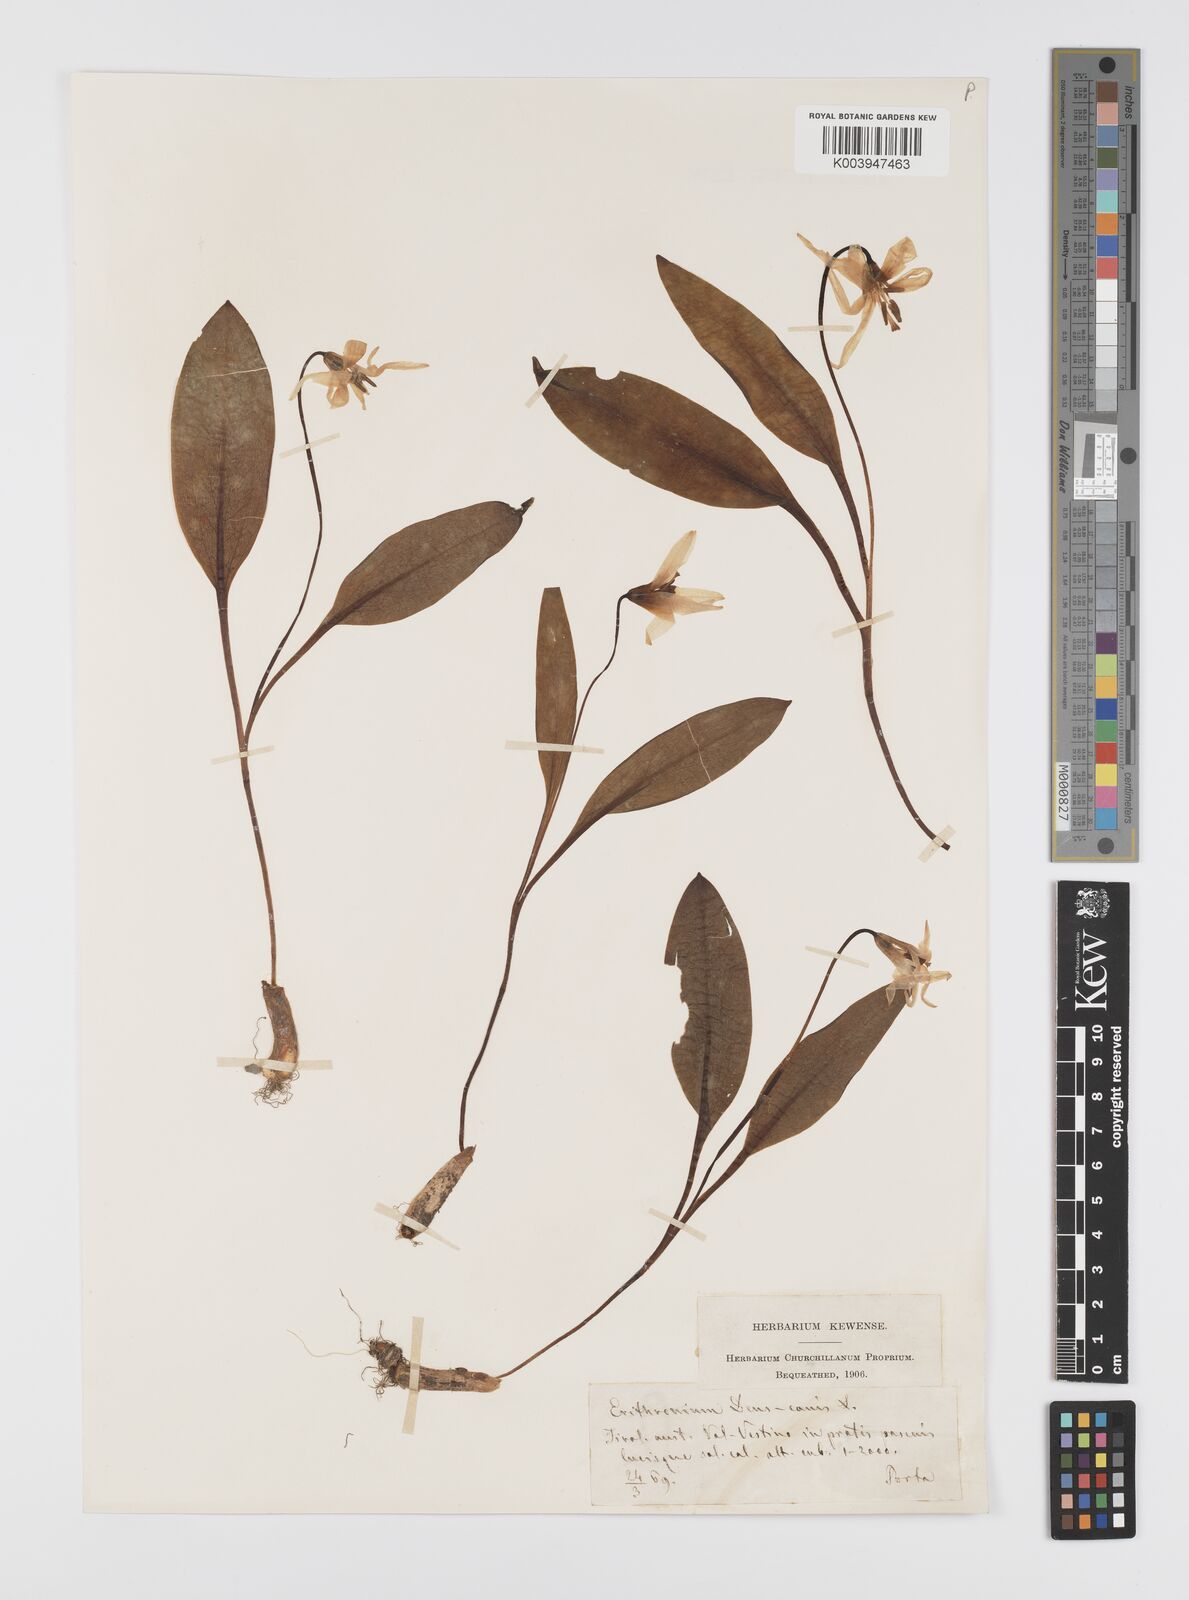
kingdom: Plantae
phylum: Tracheophyta
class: Liliopsida
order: Liliales
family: Liliaceae
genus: Erythronium
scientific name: Erythronium dens-canis
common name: Dog's-tooth-violet
